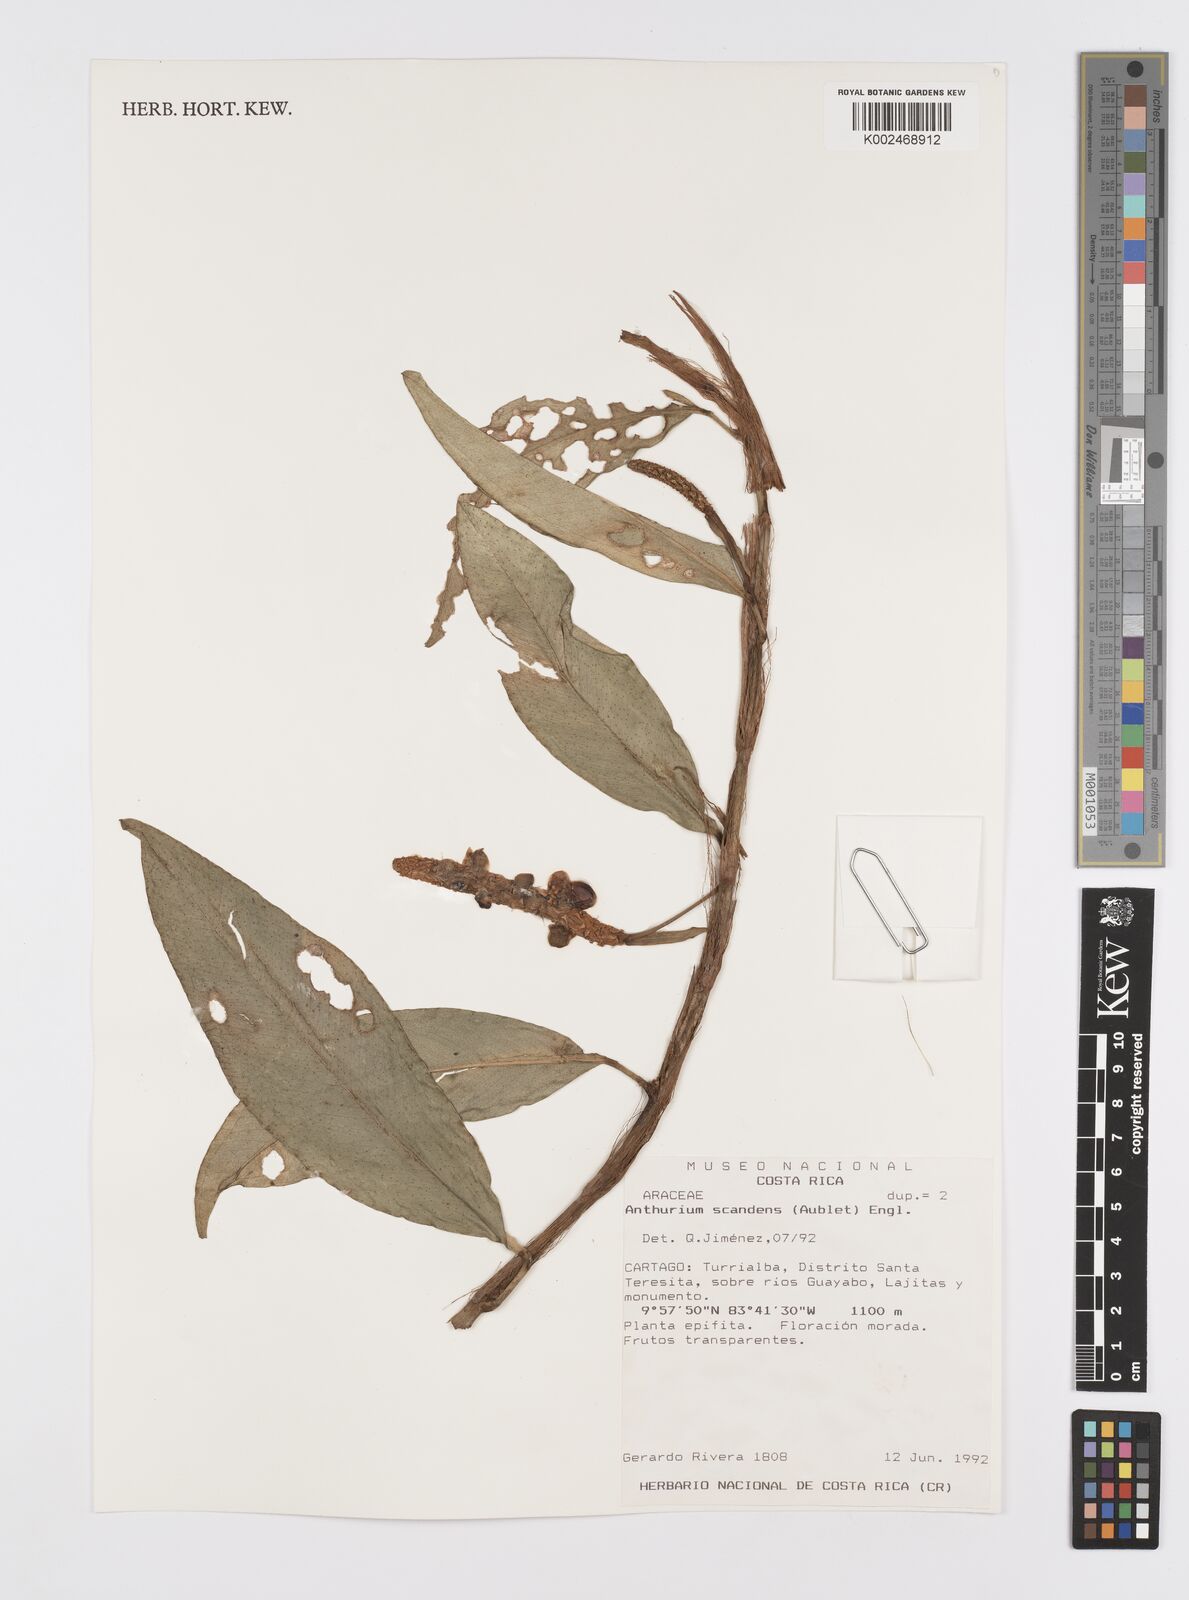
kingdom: Plantae
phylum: Tracheophyta
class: Liliopsida
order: Alismatales
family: Araceae
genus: Anthurium
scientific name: Anthurium scandens
